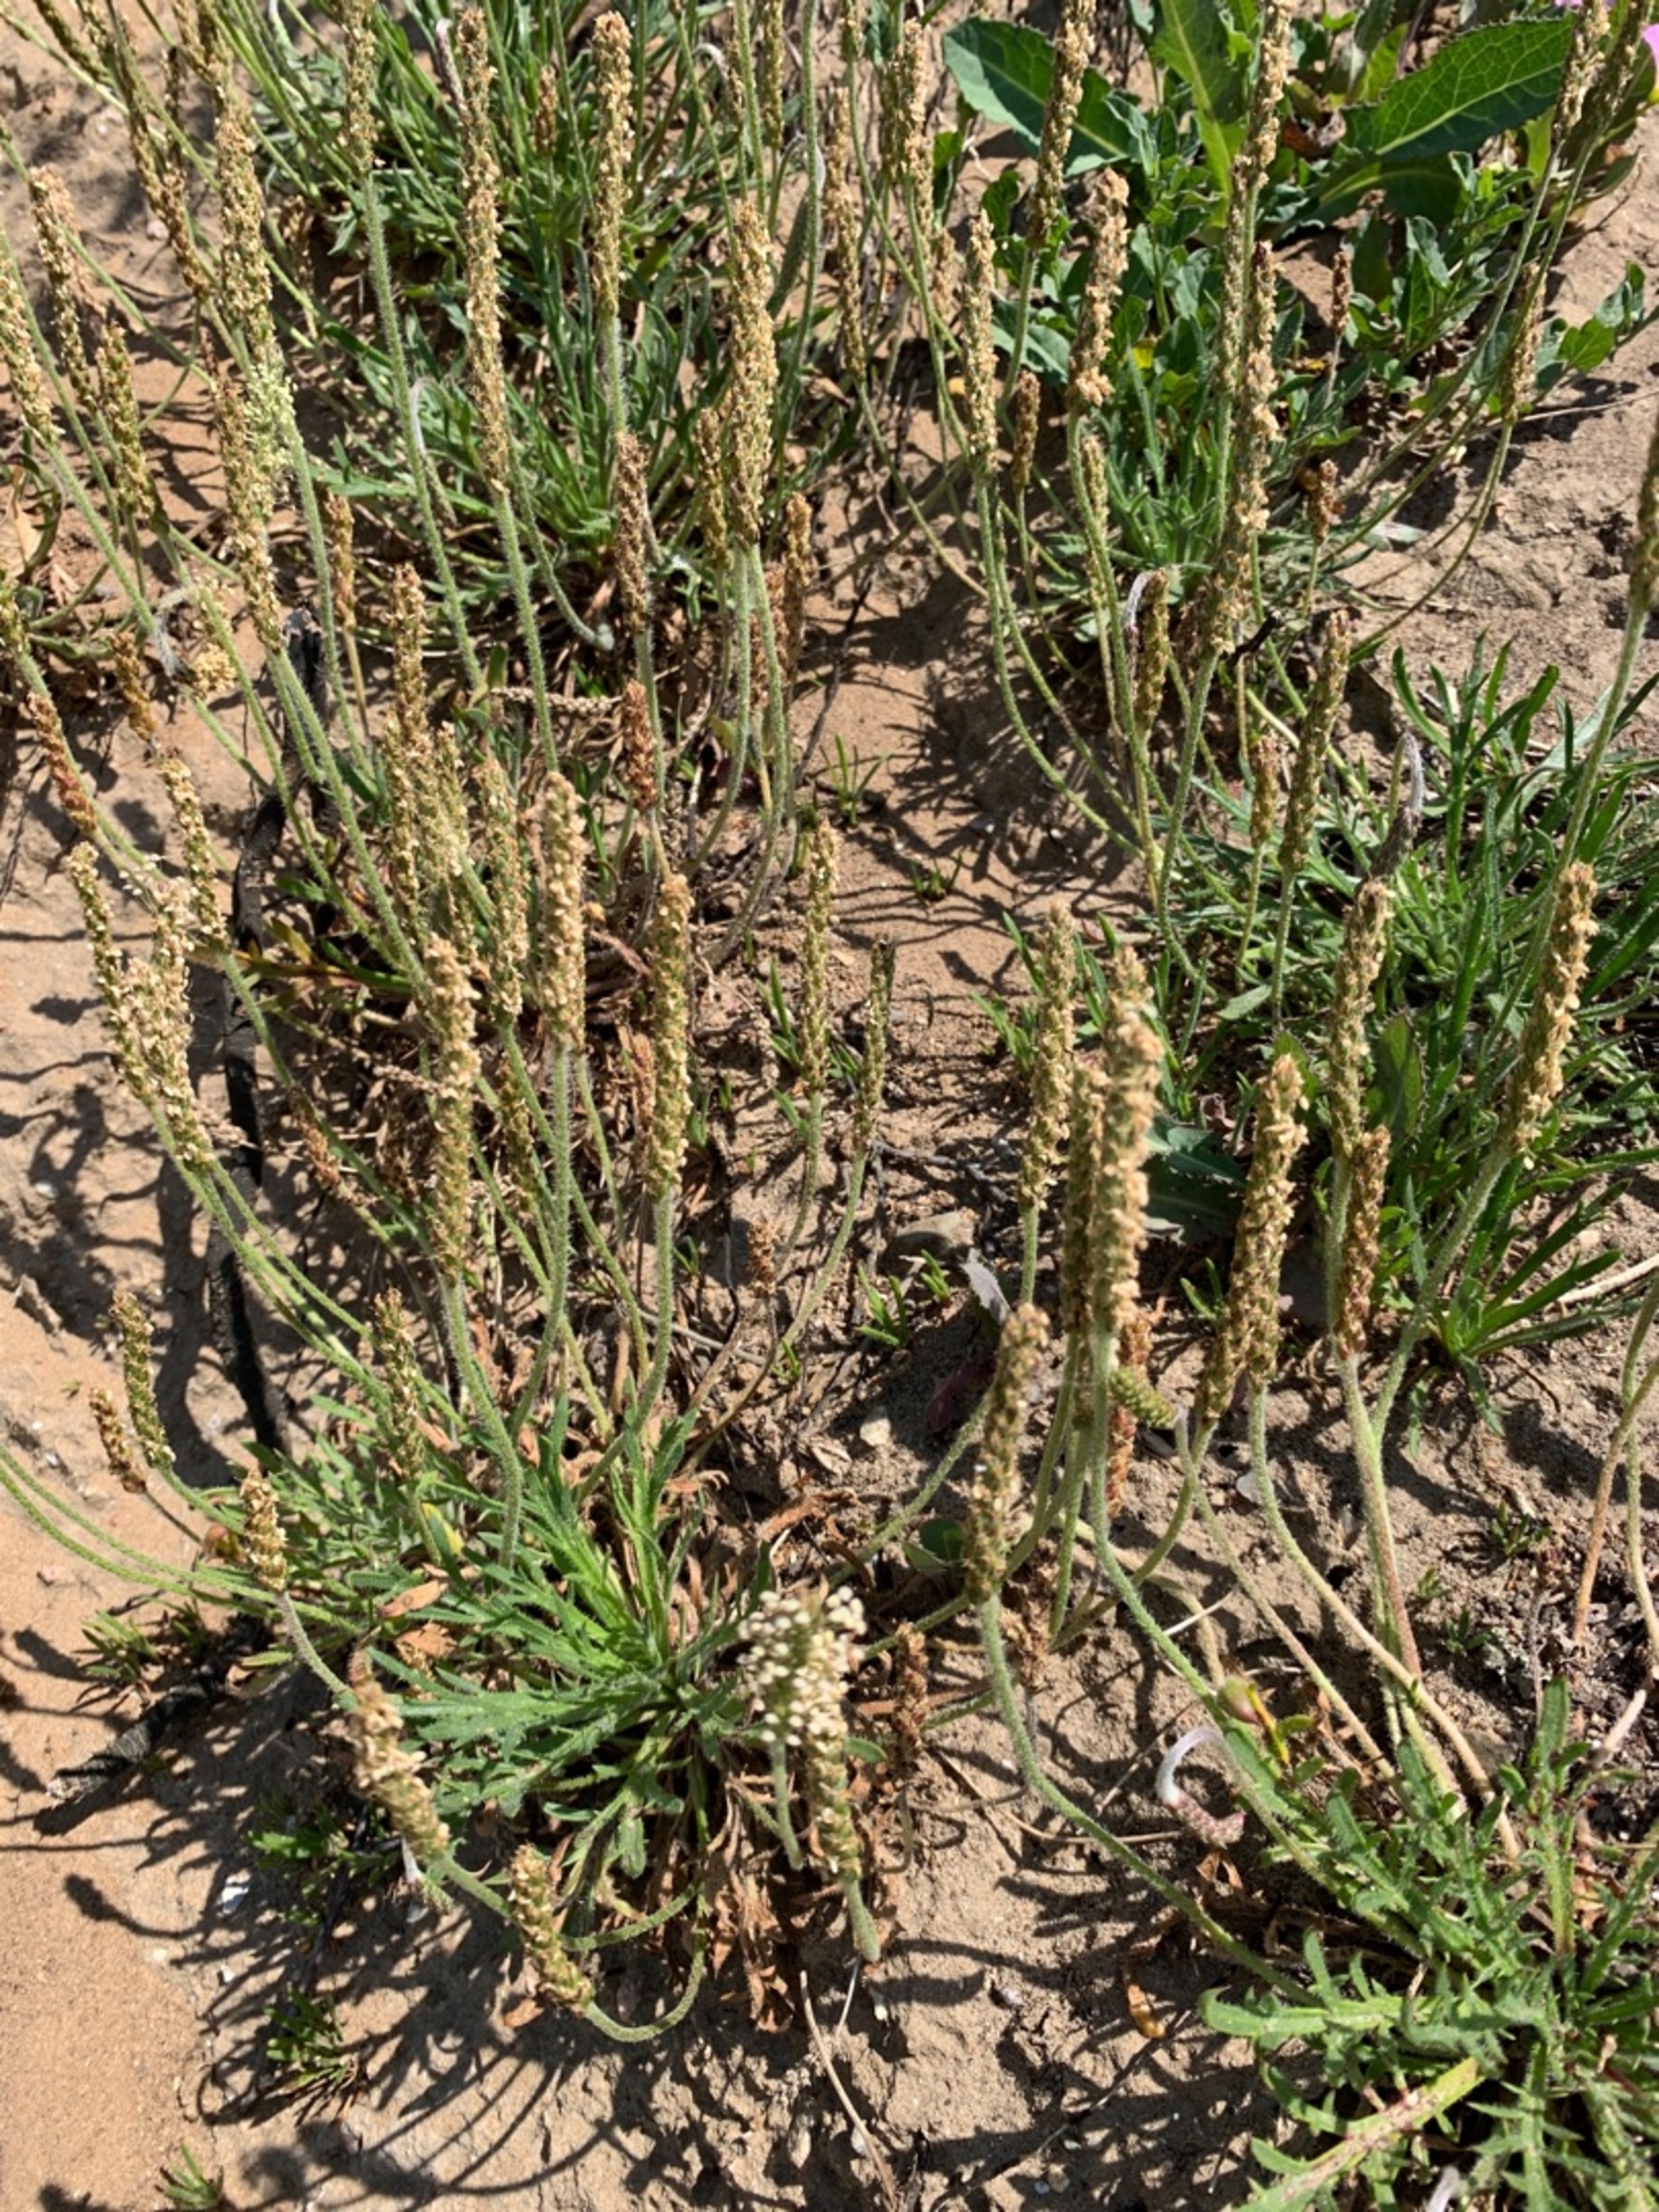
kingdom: Plantae
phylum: Tracheophyta
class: Magnoliopsida
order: Lamiales
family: Plantaginaceae
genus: Plantago
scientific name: Plantago coronopus
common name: Fliget vejbred
